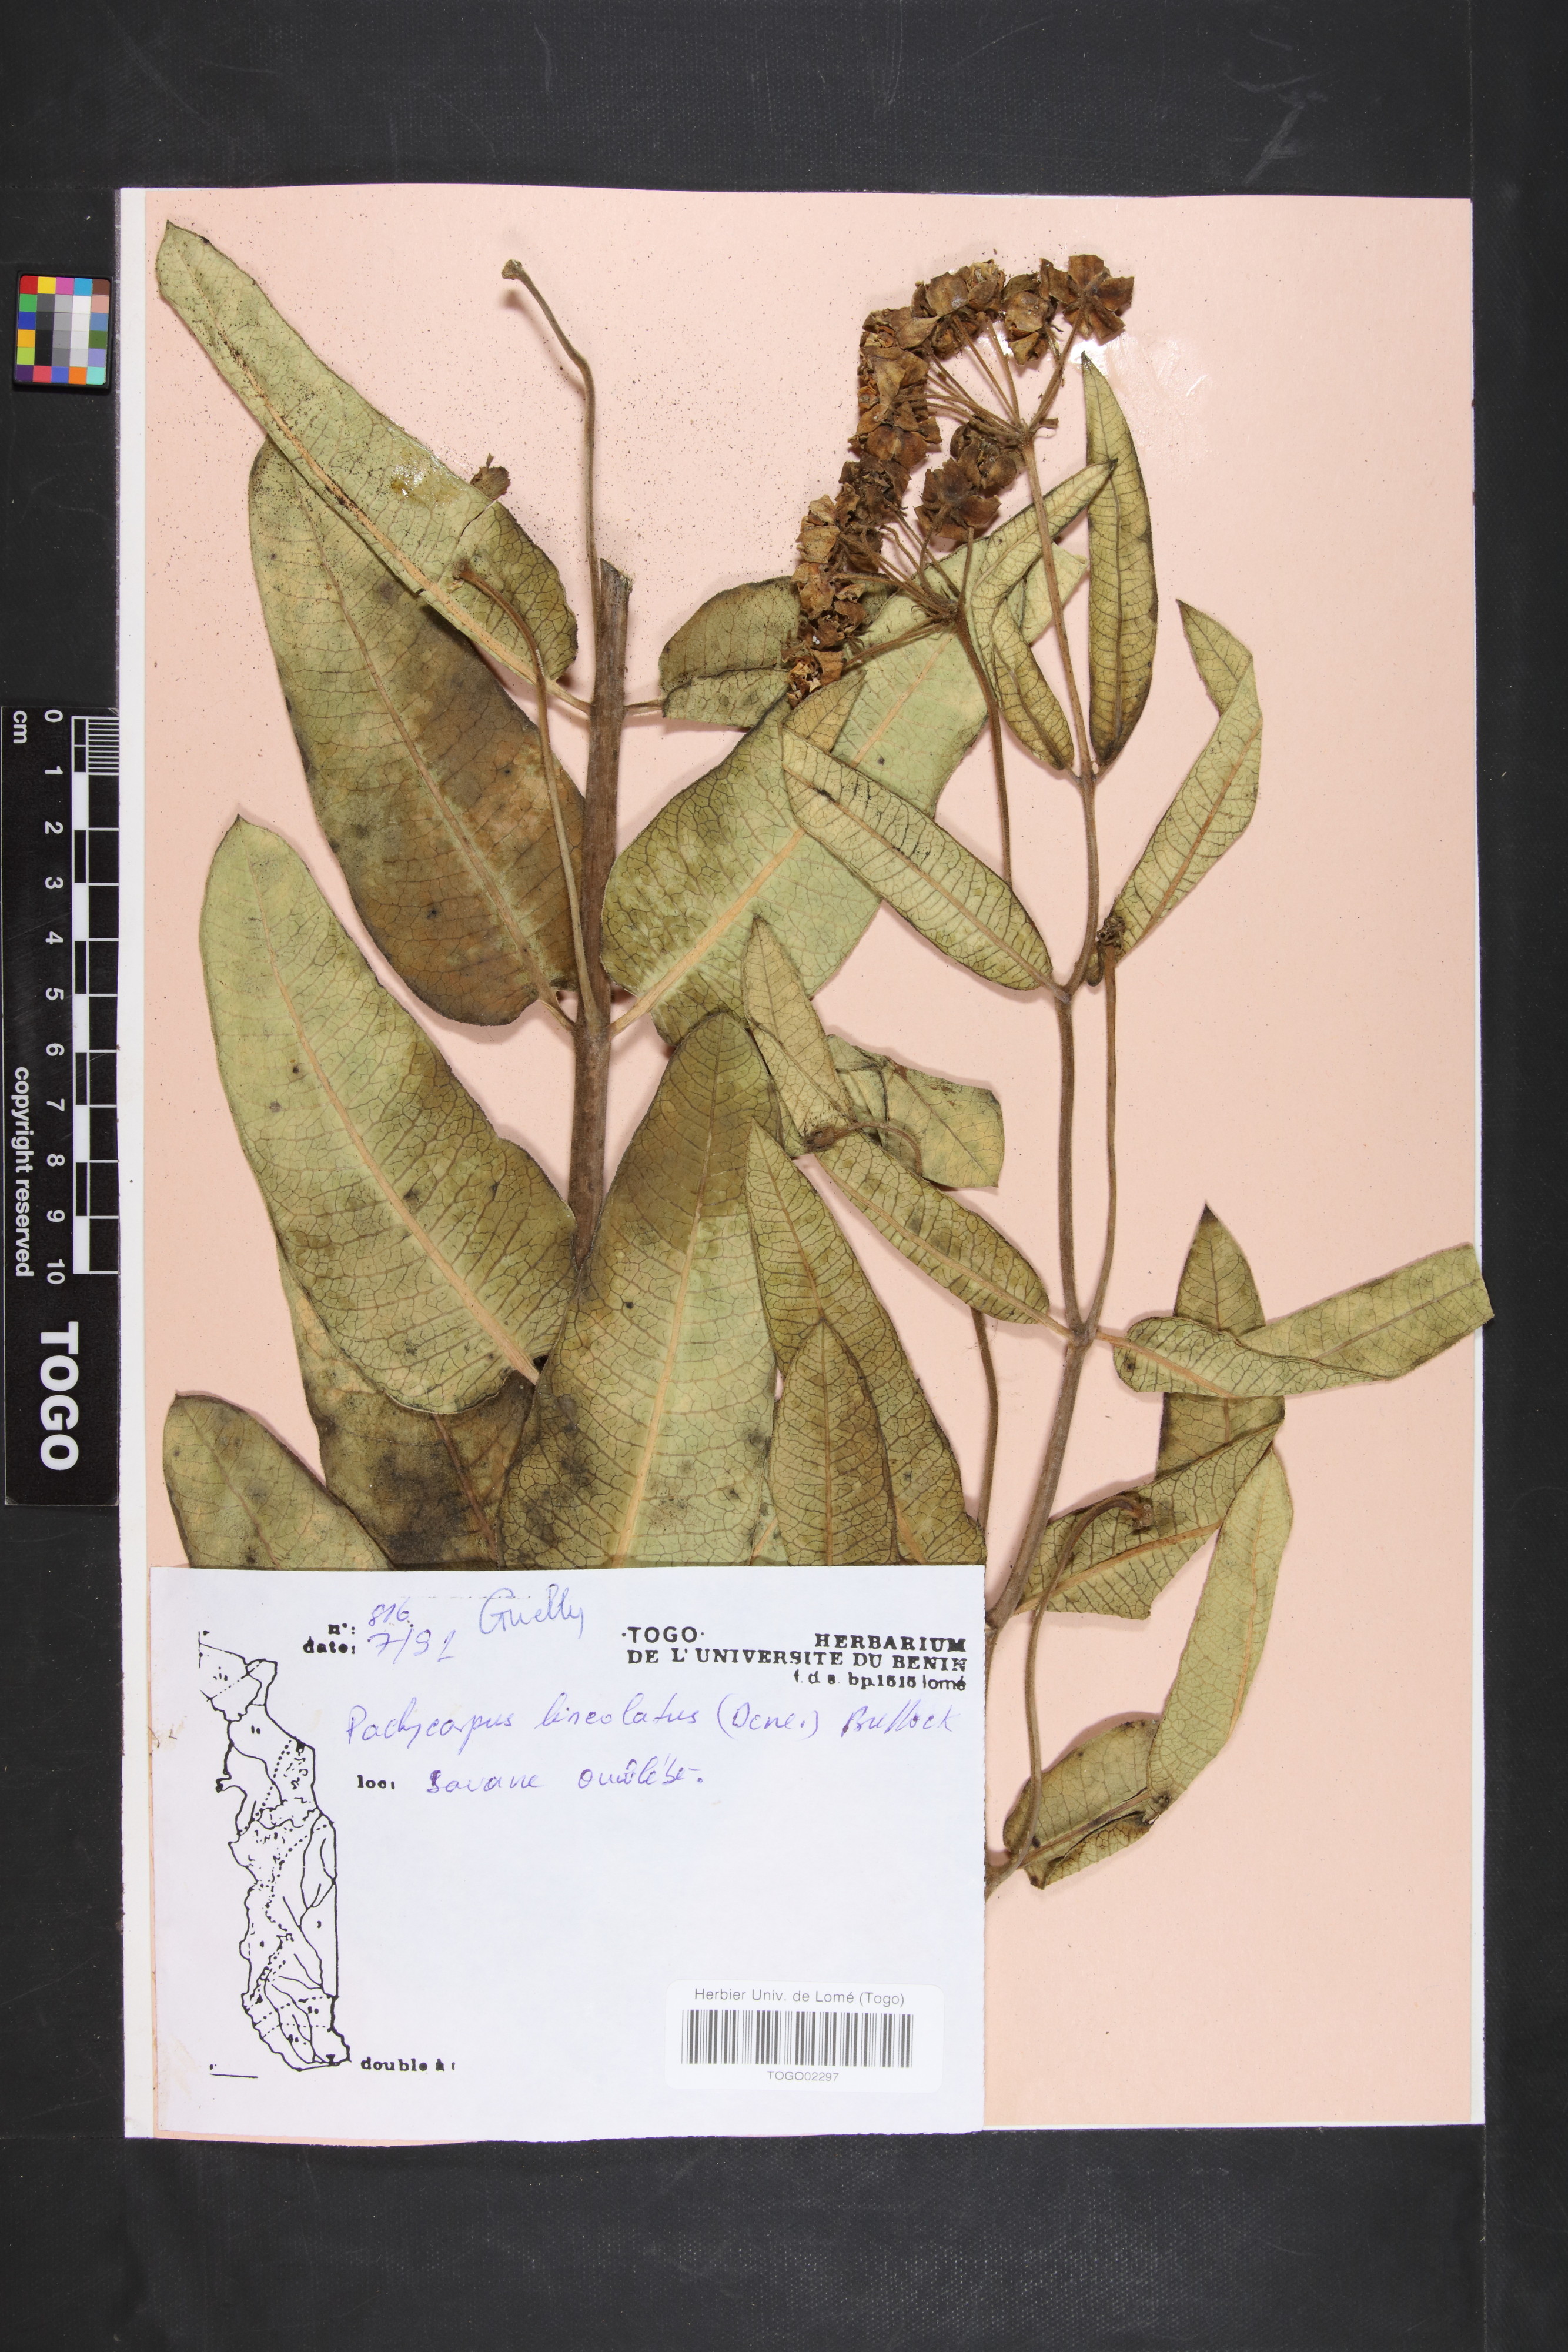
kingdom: Plantae
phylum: Tracheophyta
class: Magnoliopsida
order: Gentianales
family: Apocynaceae
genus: Pachycarpus
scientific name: Pachycarpus lineolatus
